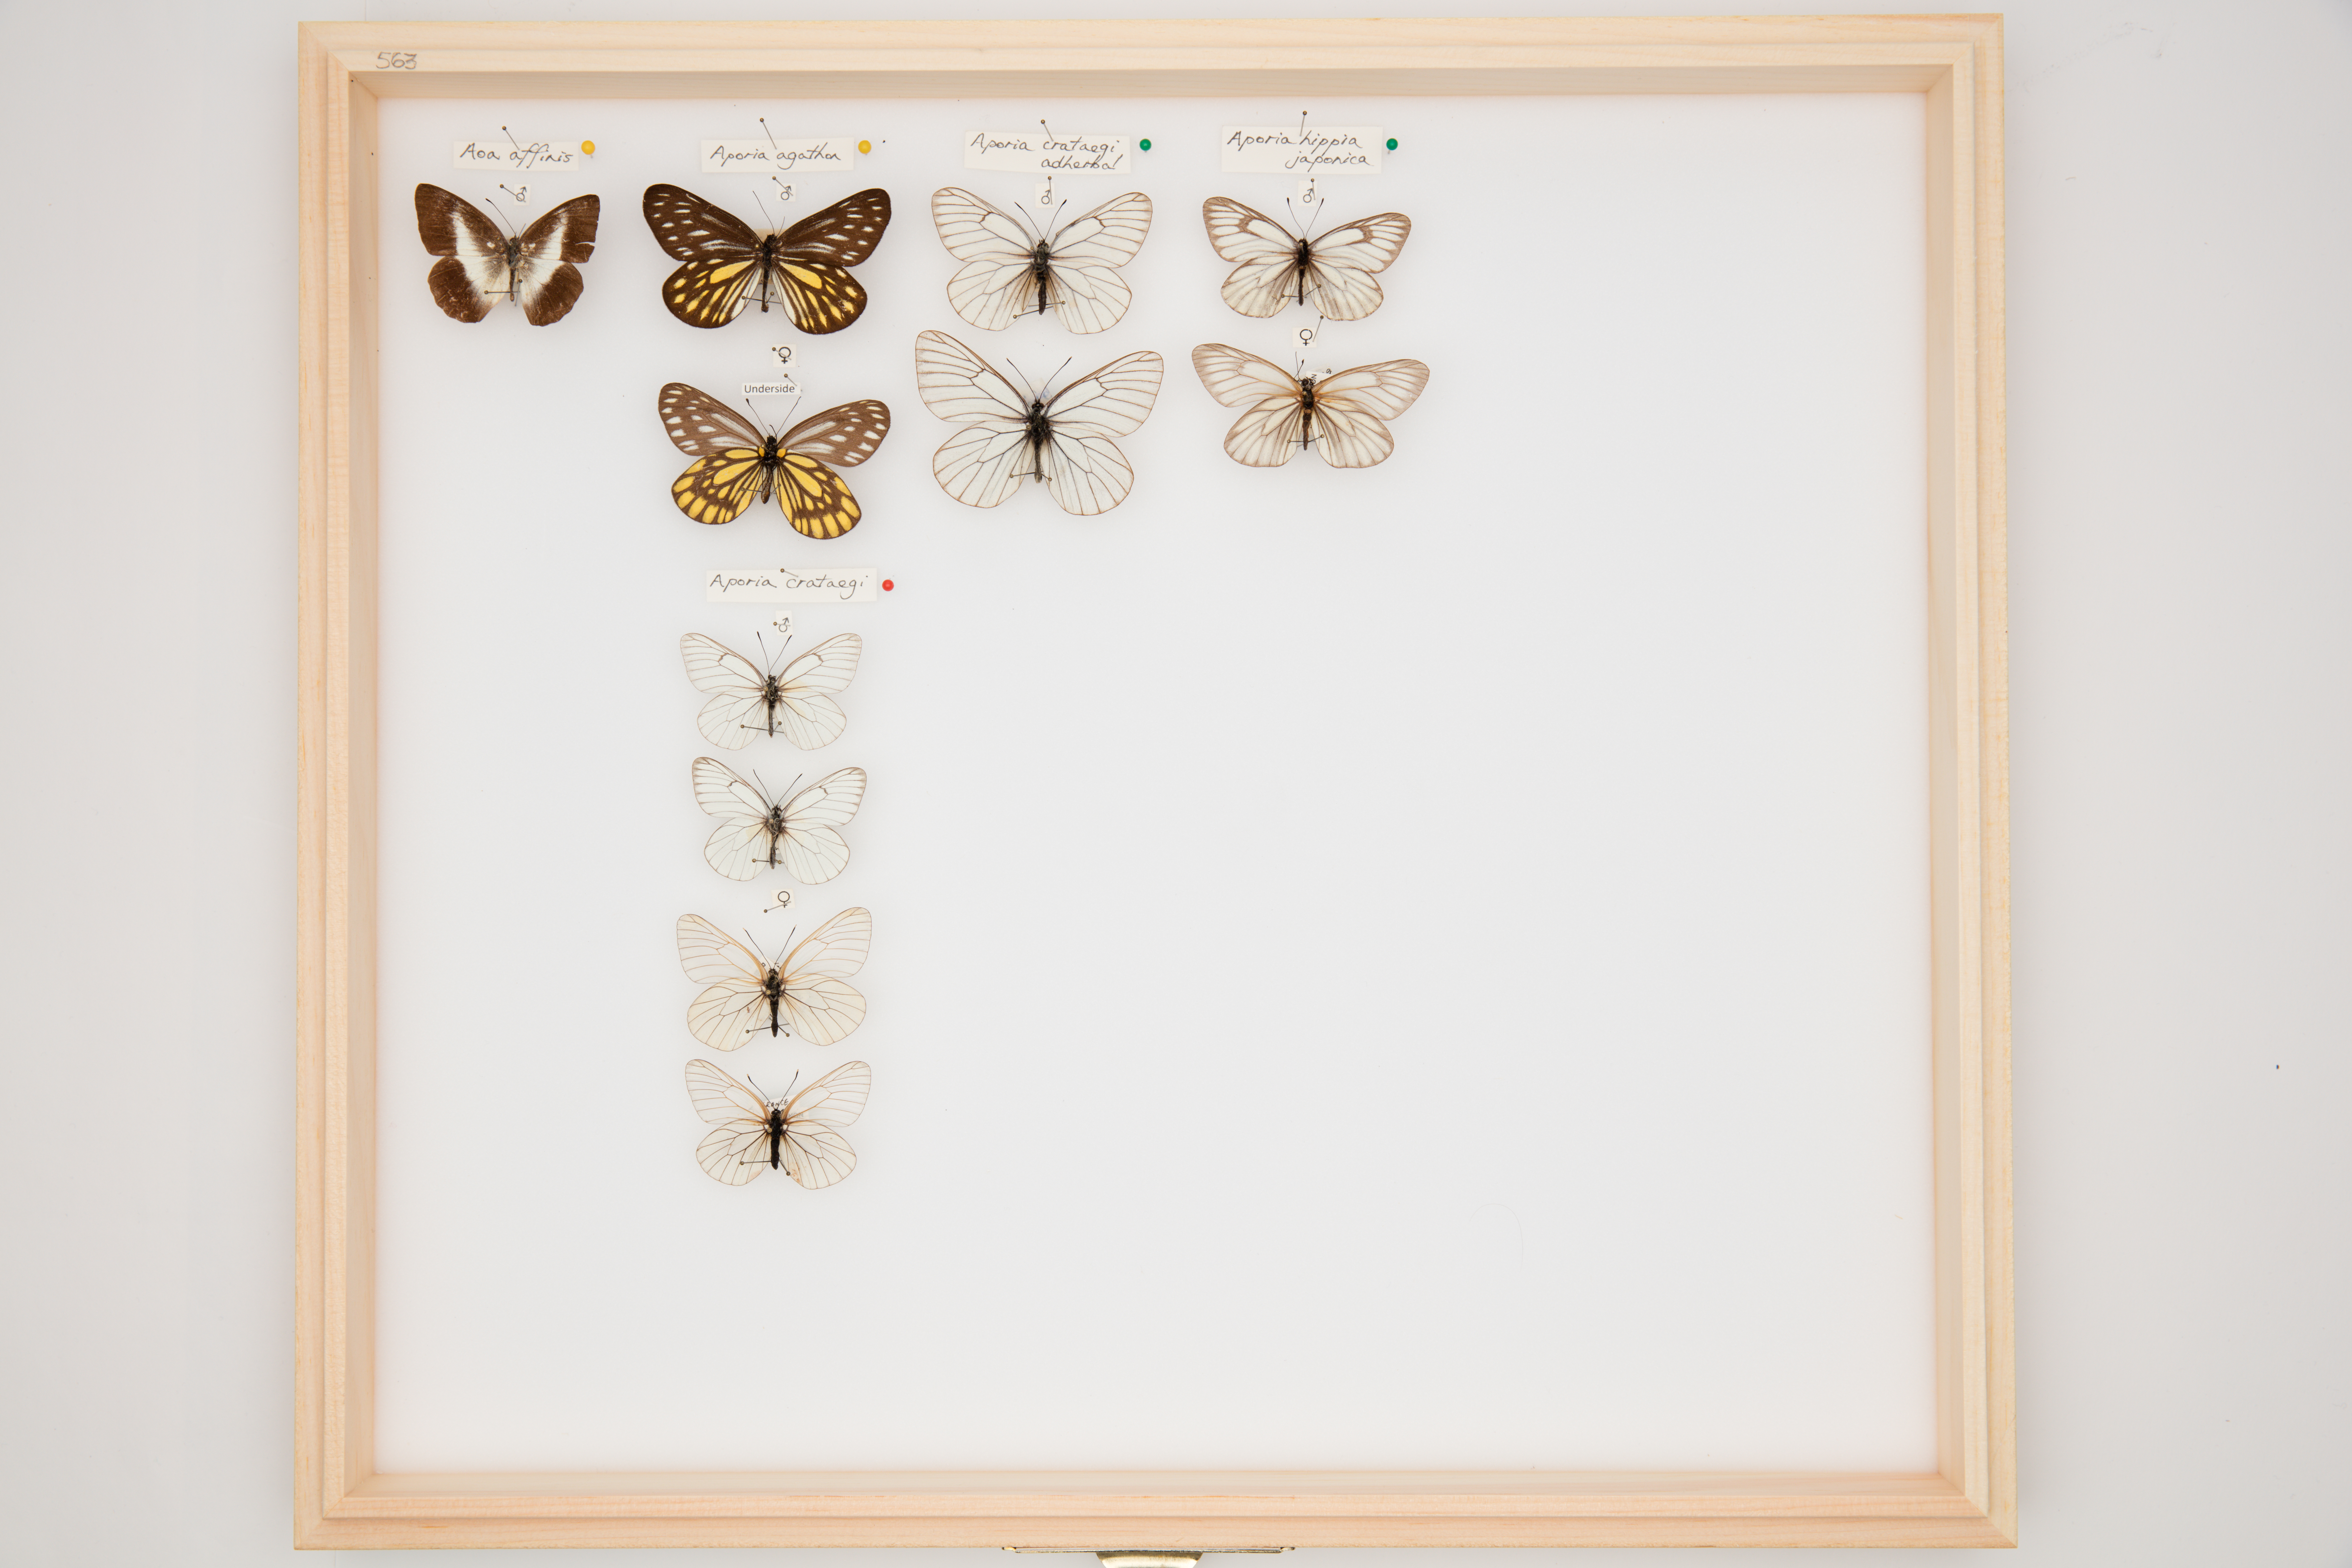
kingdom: Animalia
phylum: Arthropoda
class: Insecta
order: Lepidoptera
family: Pieridae
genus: Aporia
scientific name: Aporia hippia
